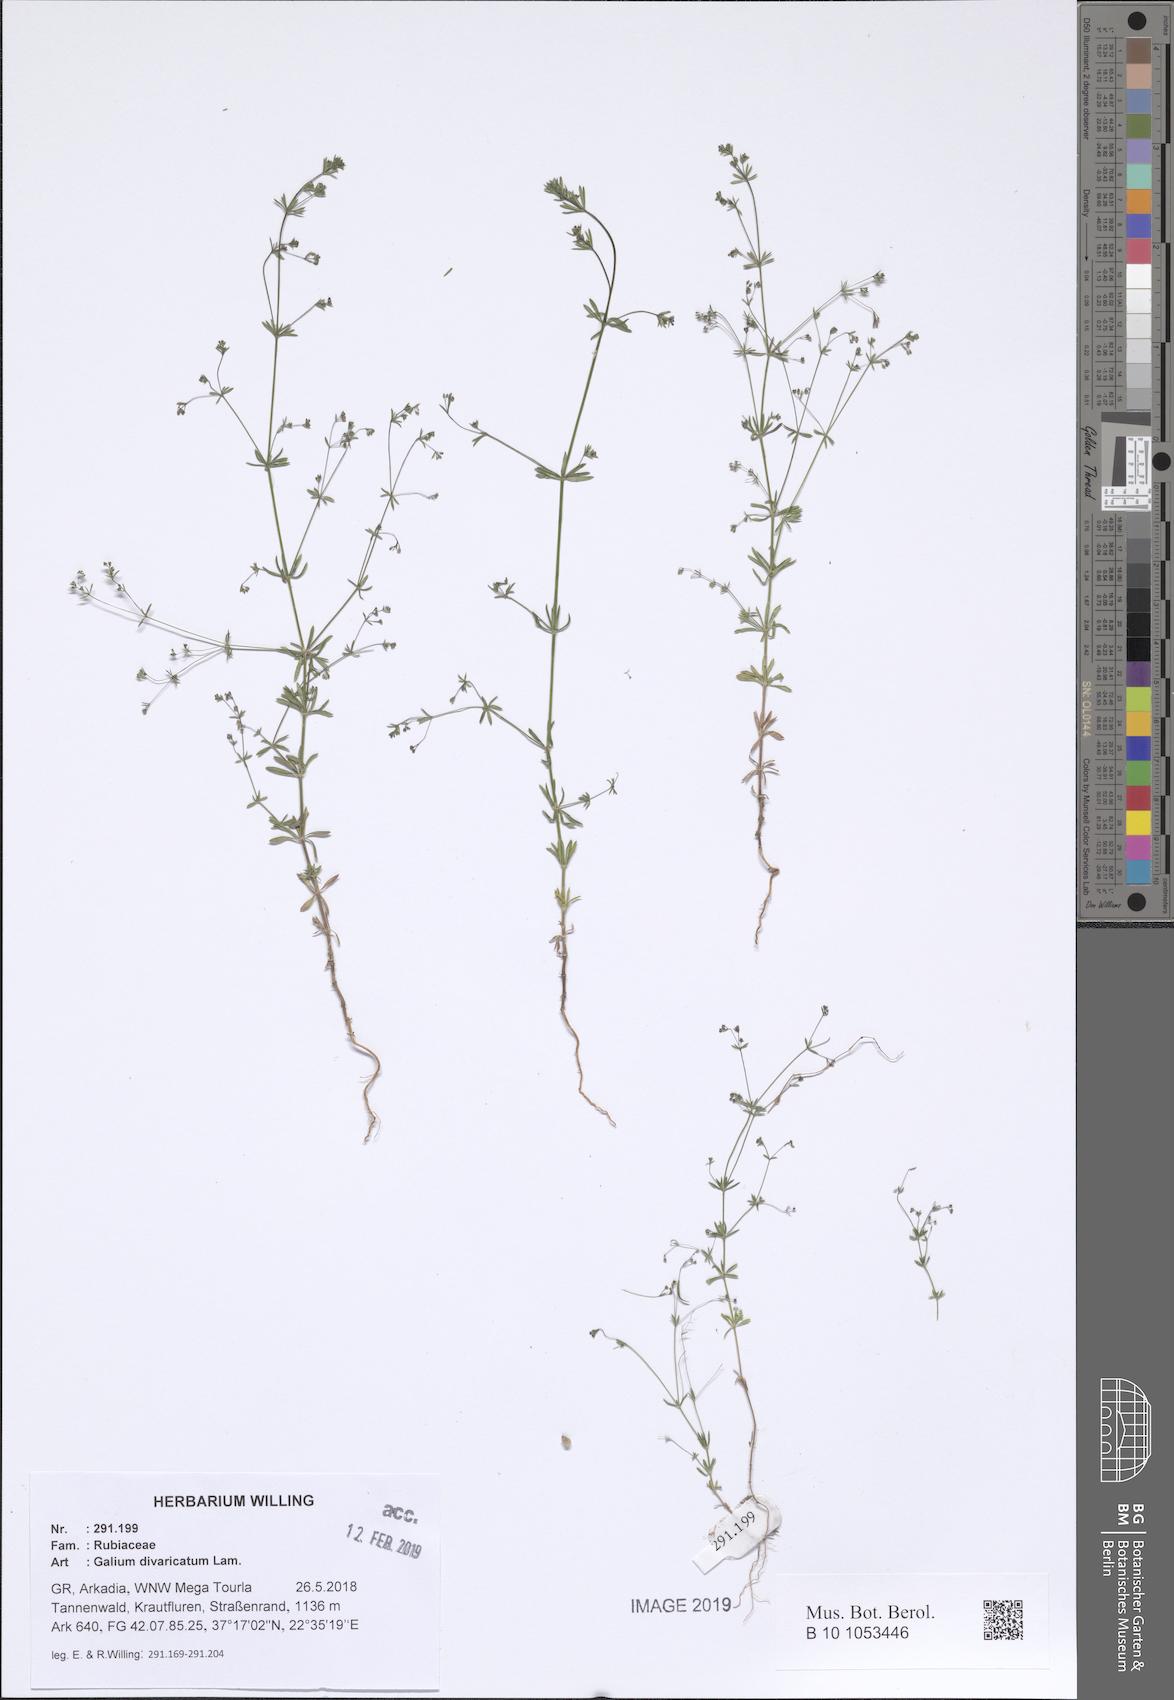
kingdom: Plantae
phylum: Tracheophyta
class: Magnoliopsida
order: Gentianales
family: Rubiaceae
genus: Galium
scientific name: Galium divaricatum
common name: Lamarck's bedstraw
